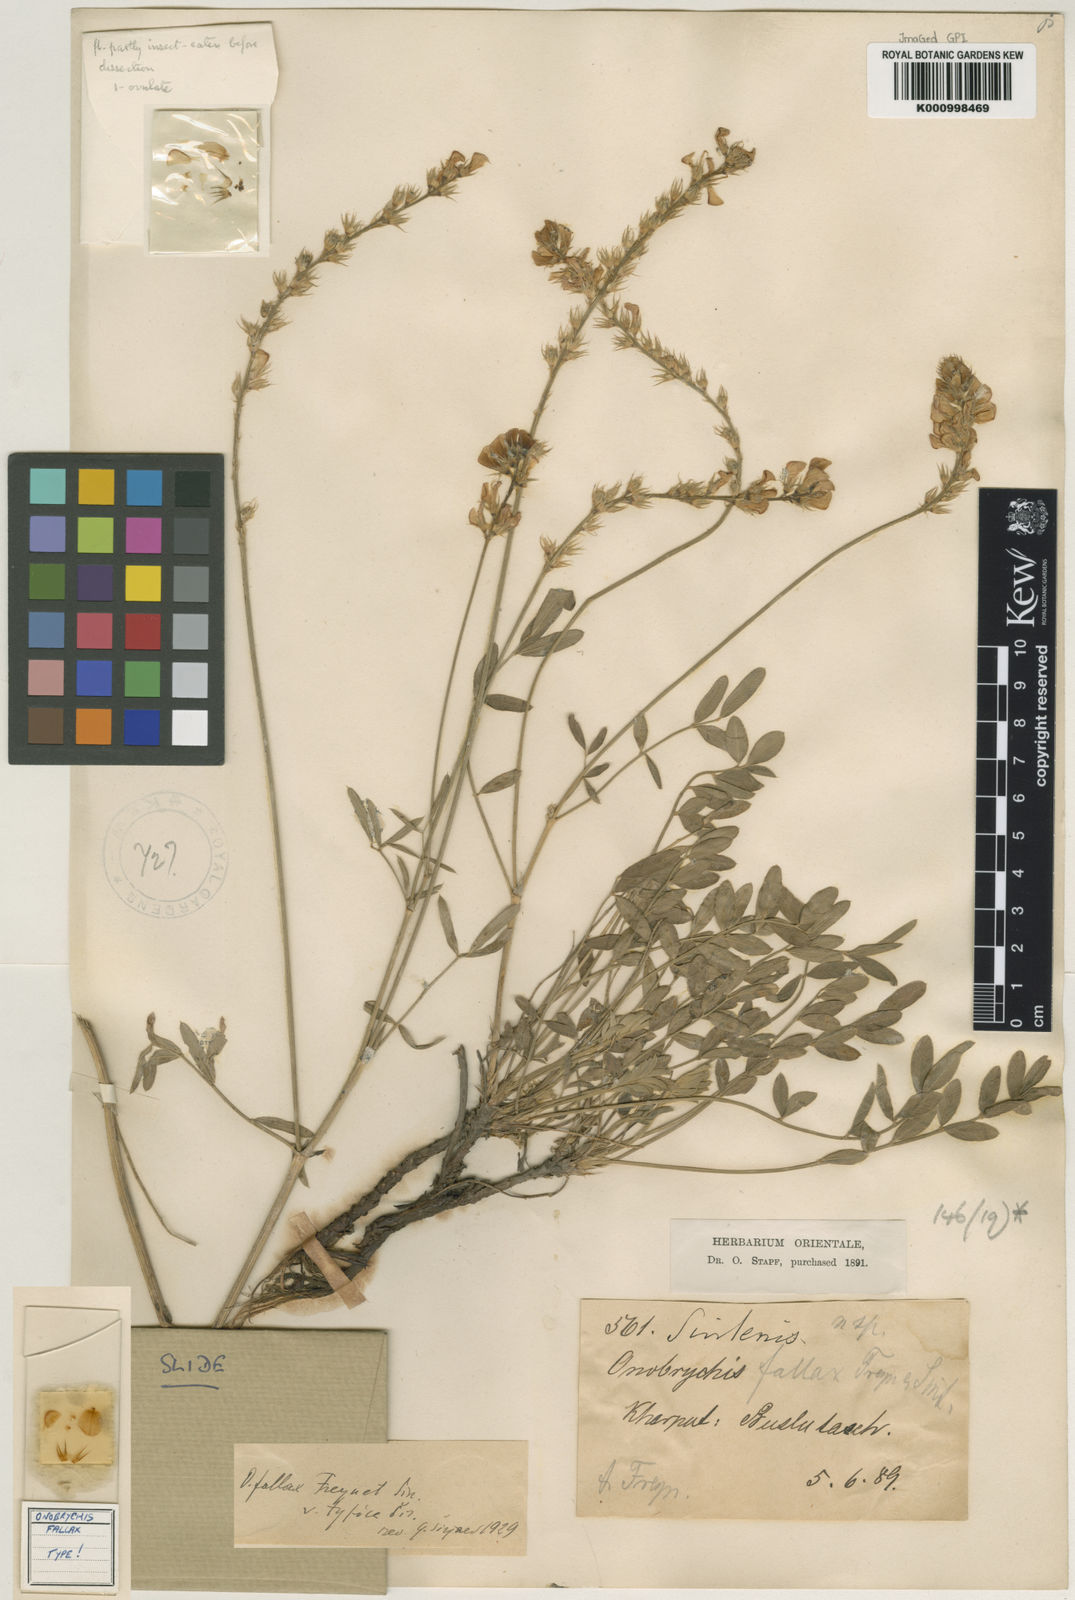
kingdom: Plantae
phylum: Tracheophyta
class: Magnoliopsida
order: Fabales
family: Fabaceae
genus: Onobrychis
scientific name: Onobrychis fallax
